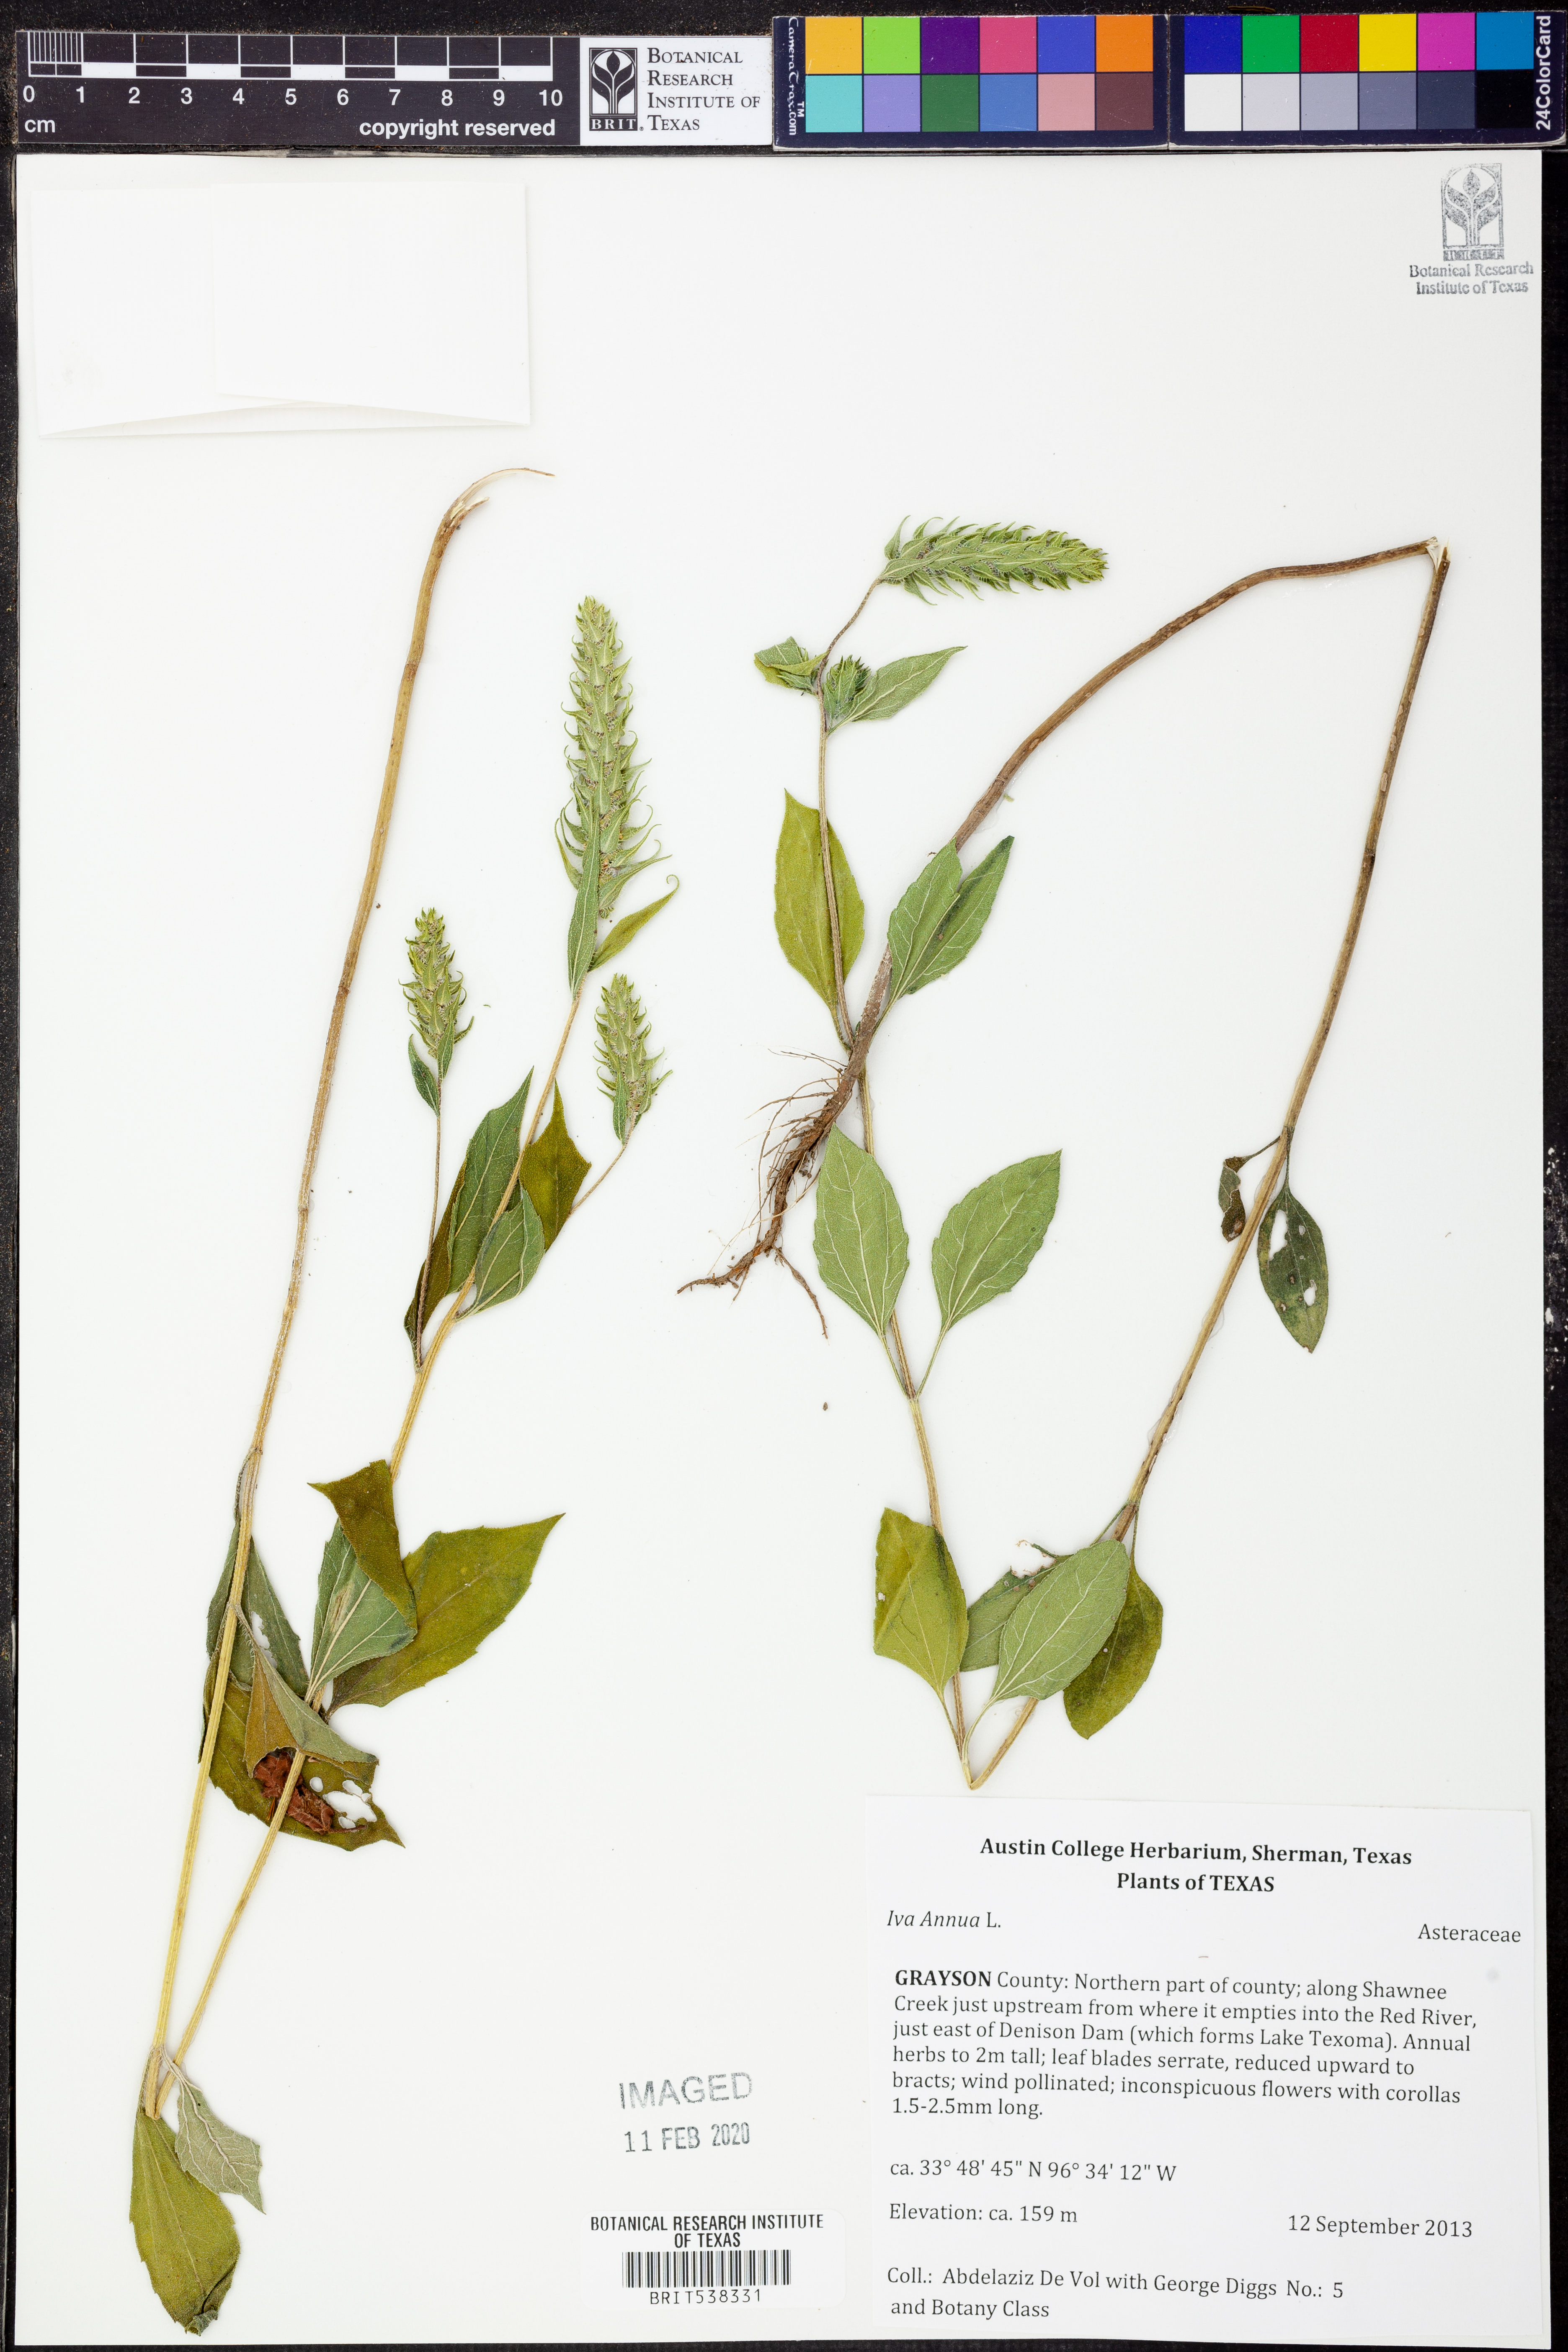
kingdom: Plantae
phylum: Tracheophyta
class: Magnoliopsida
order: Asterales
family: Asteraceae
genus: Iva
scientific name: Iva annua
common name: Marsh-elder
